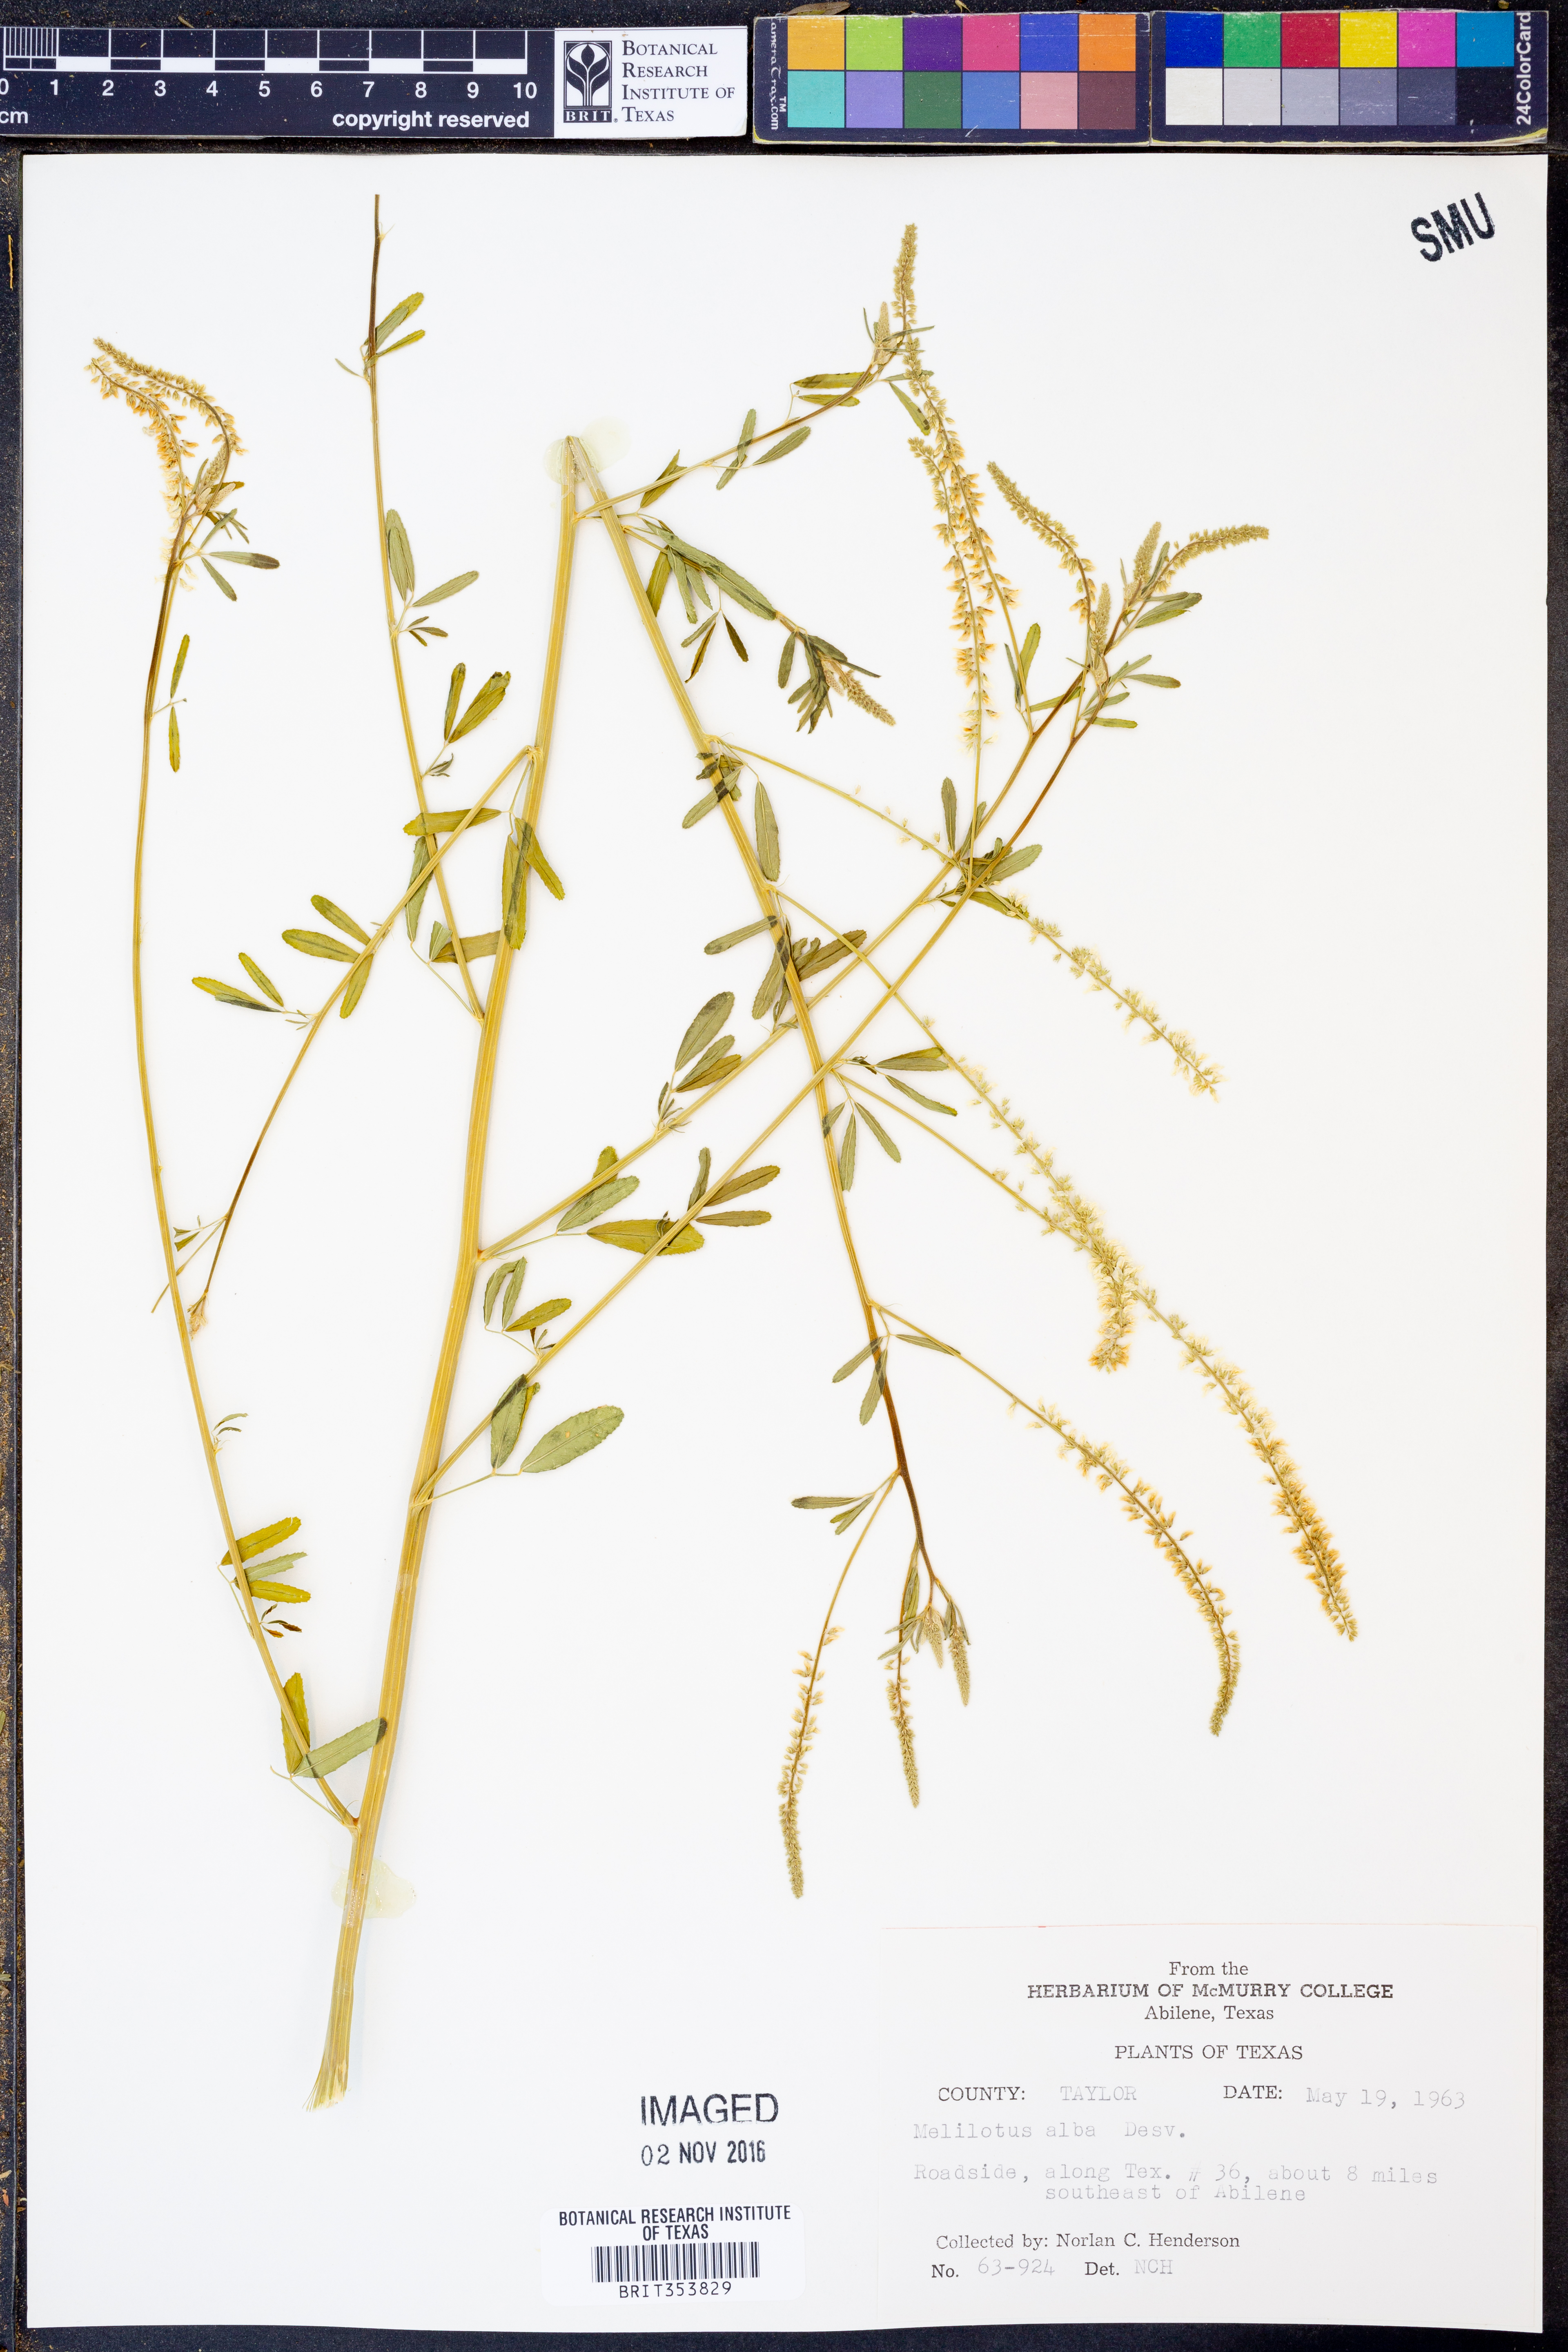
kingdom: Plantae
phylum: Tracheophyta
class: Magnoliopsida
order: Fabales
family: Fabaceae
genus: Melilotus
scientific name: Melilotus albus
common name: White melilot
